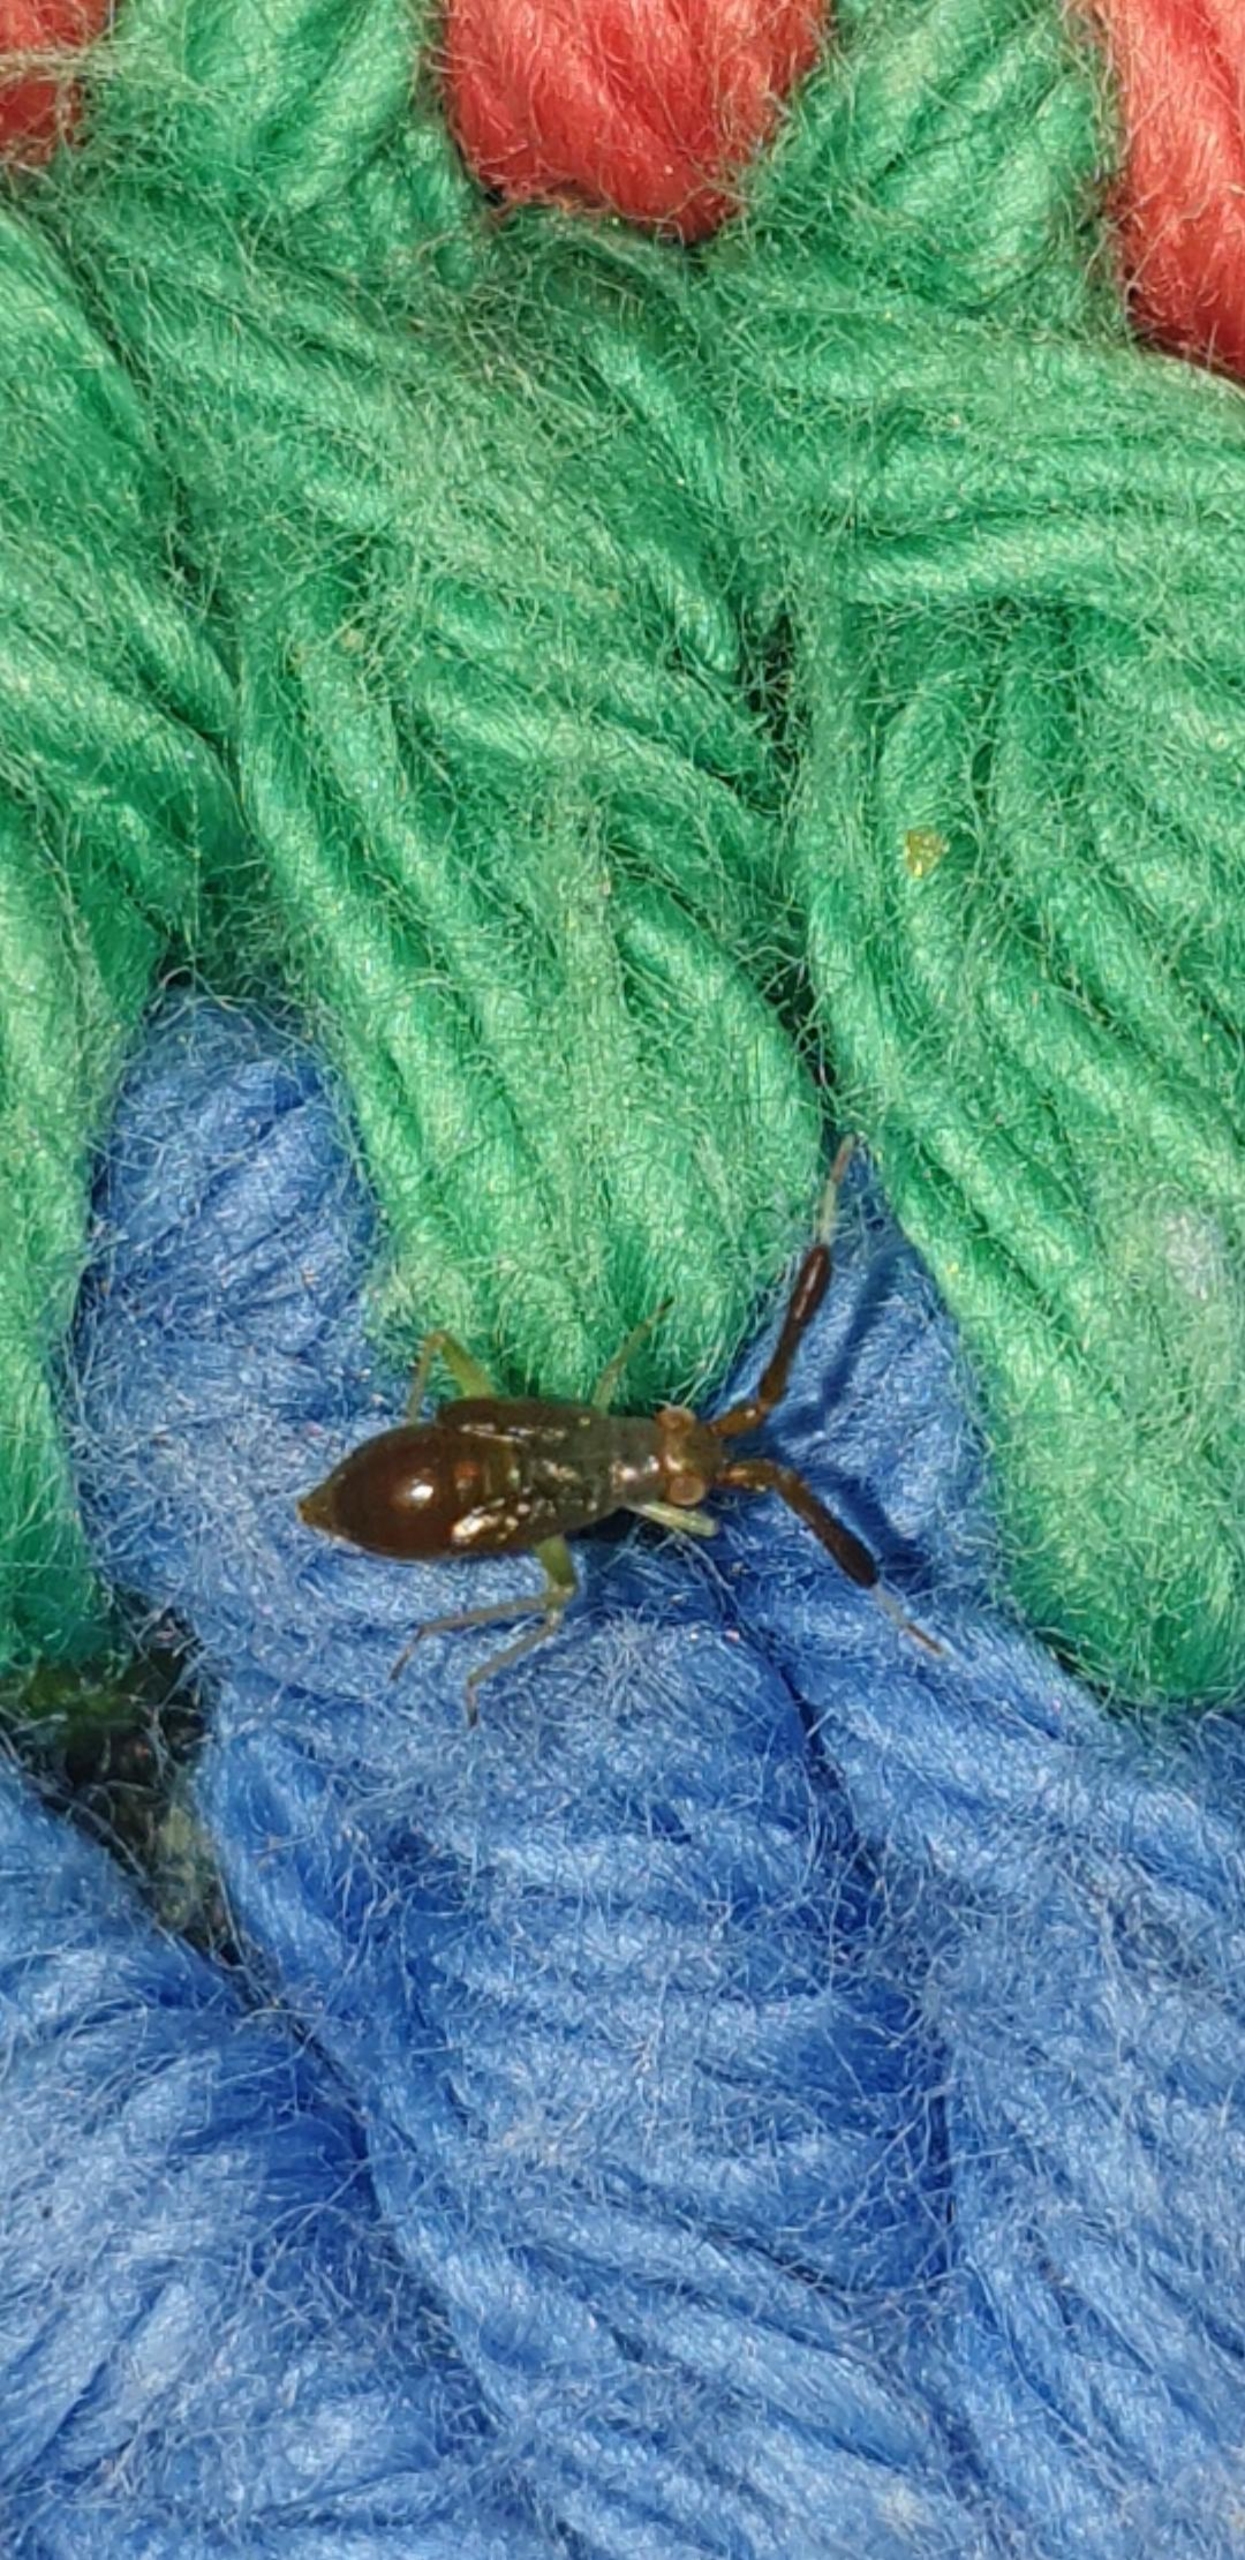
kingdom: Animalia
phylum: Arthropoda
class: Insecta
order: Hemiptera
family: Miridae
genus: Heterotoma
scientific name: Heterotoma planicornis
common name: Køllehornet blomstertæge
